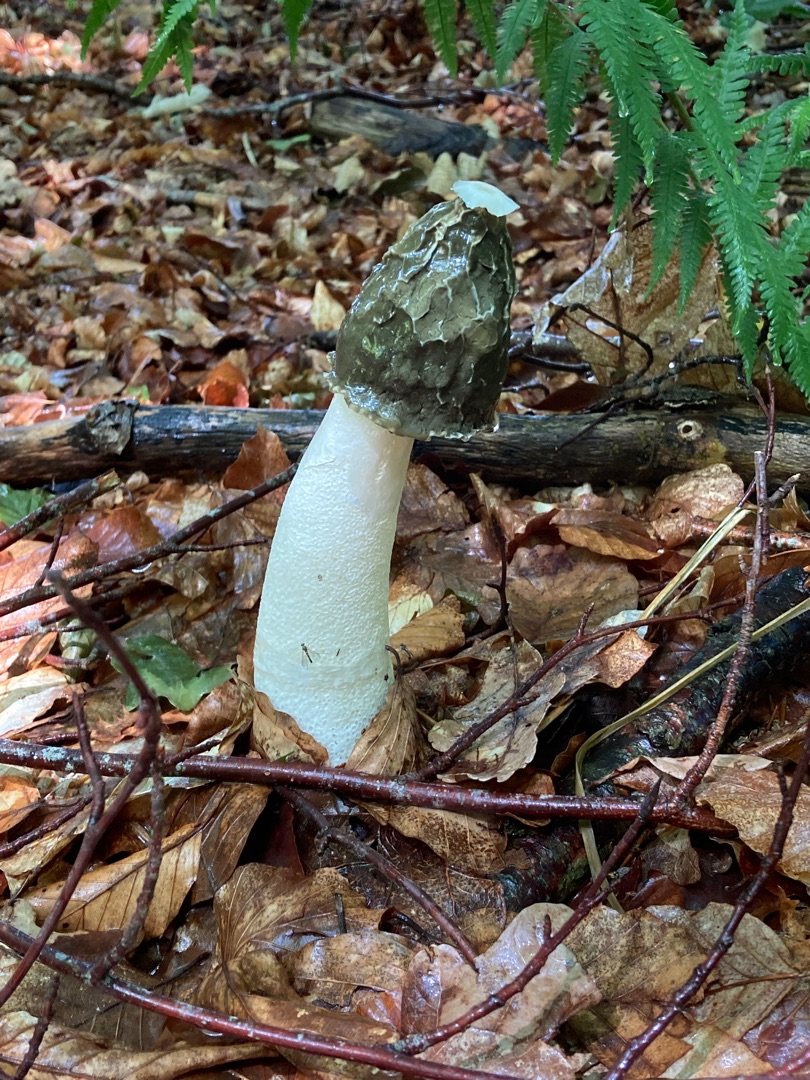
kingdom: Fungi
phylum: Basidiomycota
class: Agaricomycetes
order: Phallales
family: Phallaceae
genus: Phallus
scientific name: Phallus impudicus
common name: Almindelig stinksvamp
